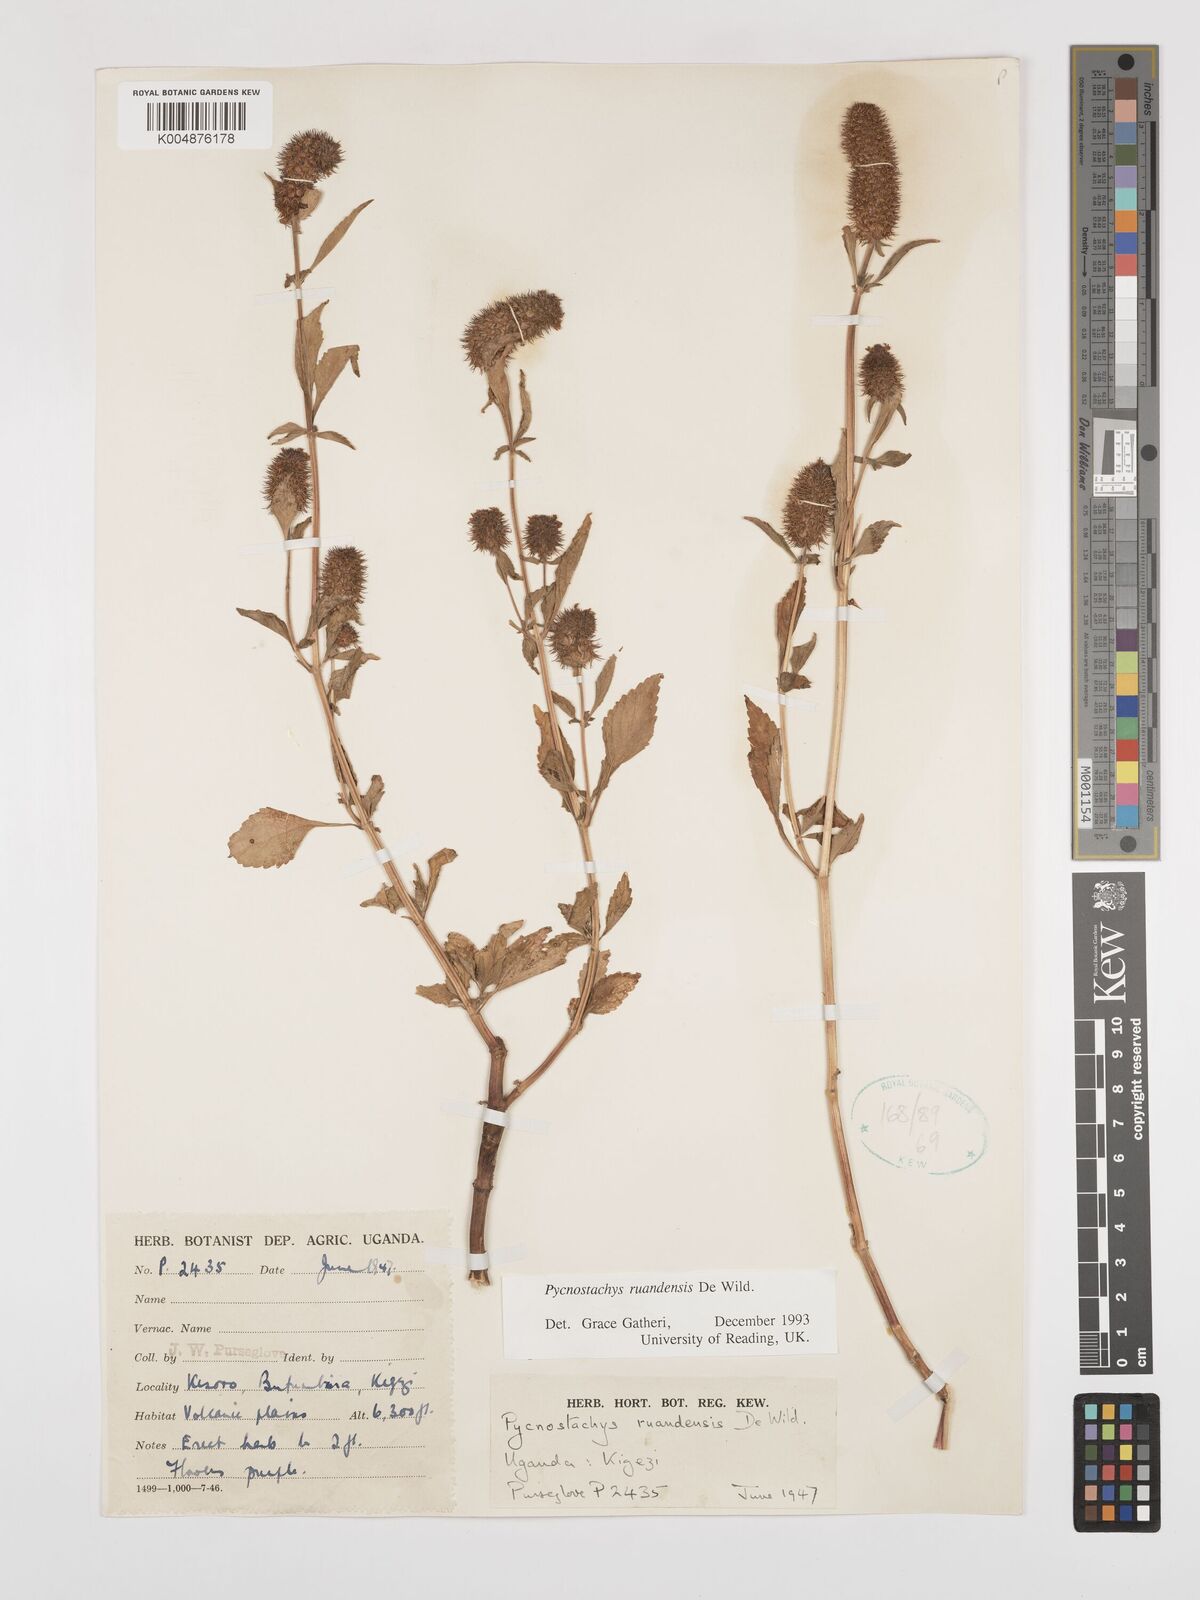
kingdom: Plantae
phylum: Tracheophyta
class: Magnoliopsida
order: Lamiales
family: Lamiaceae
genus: Coleus
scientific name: Coleus ruandensis
